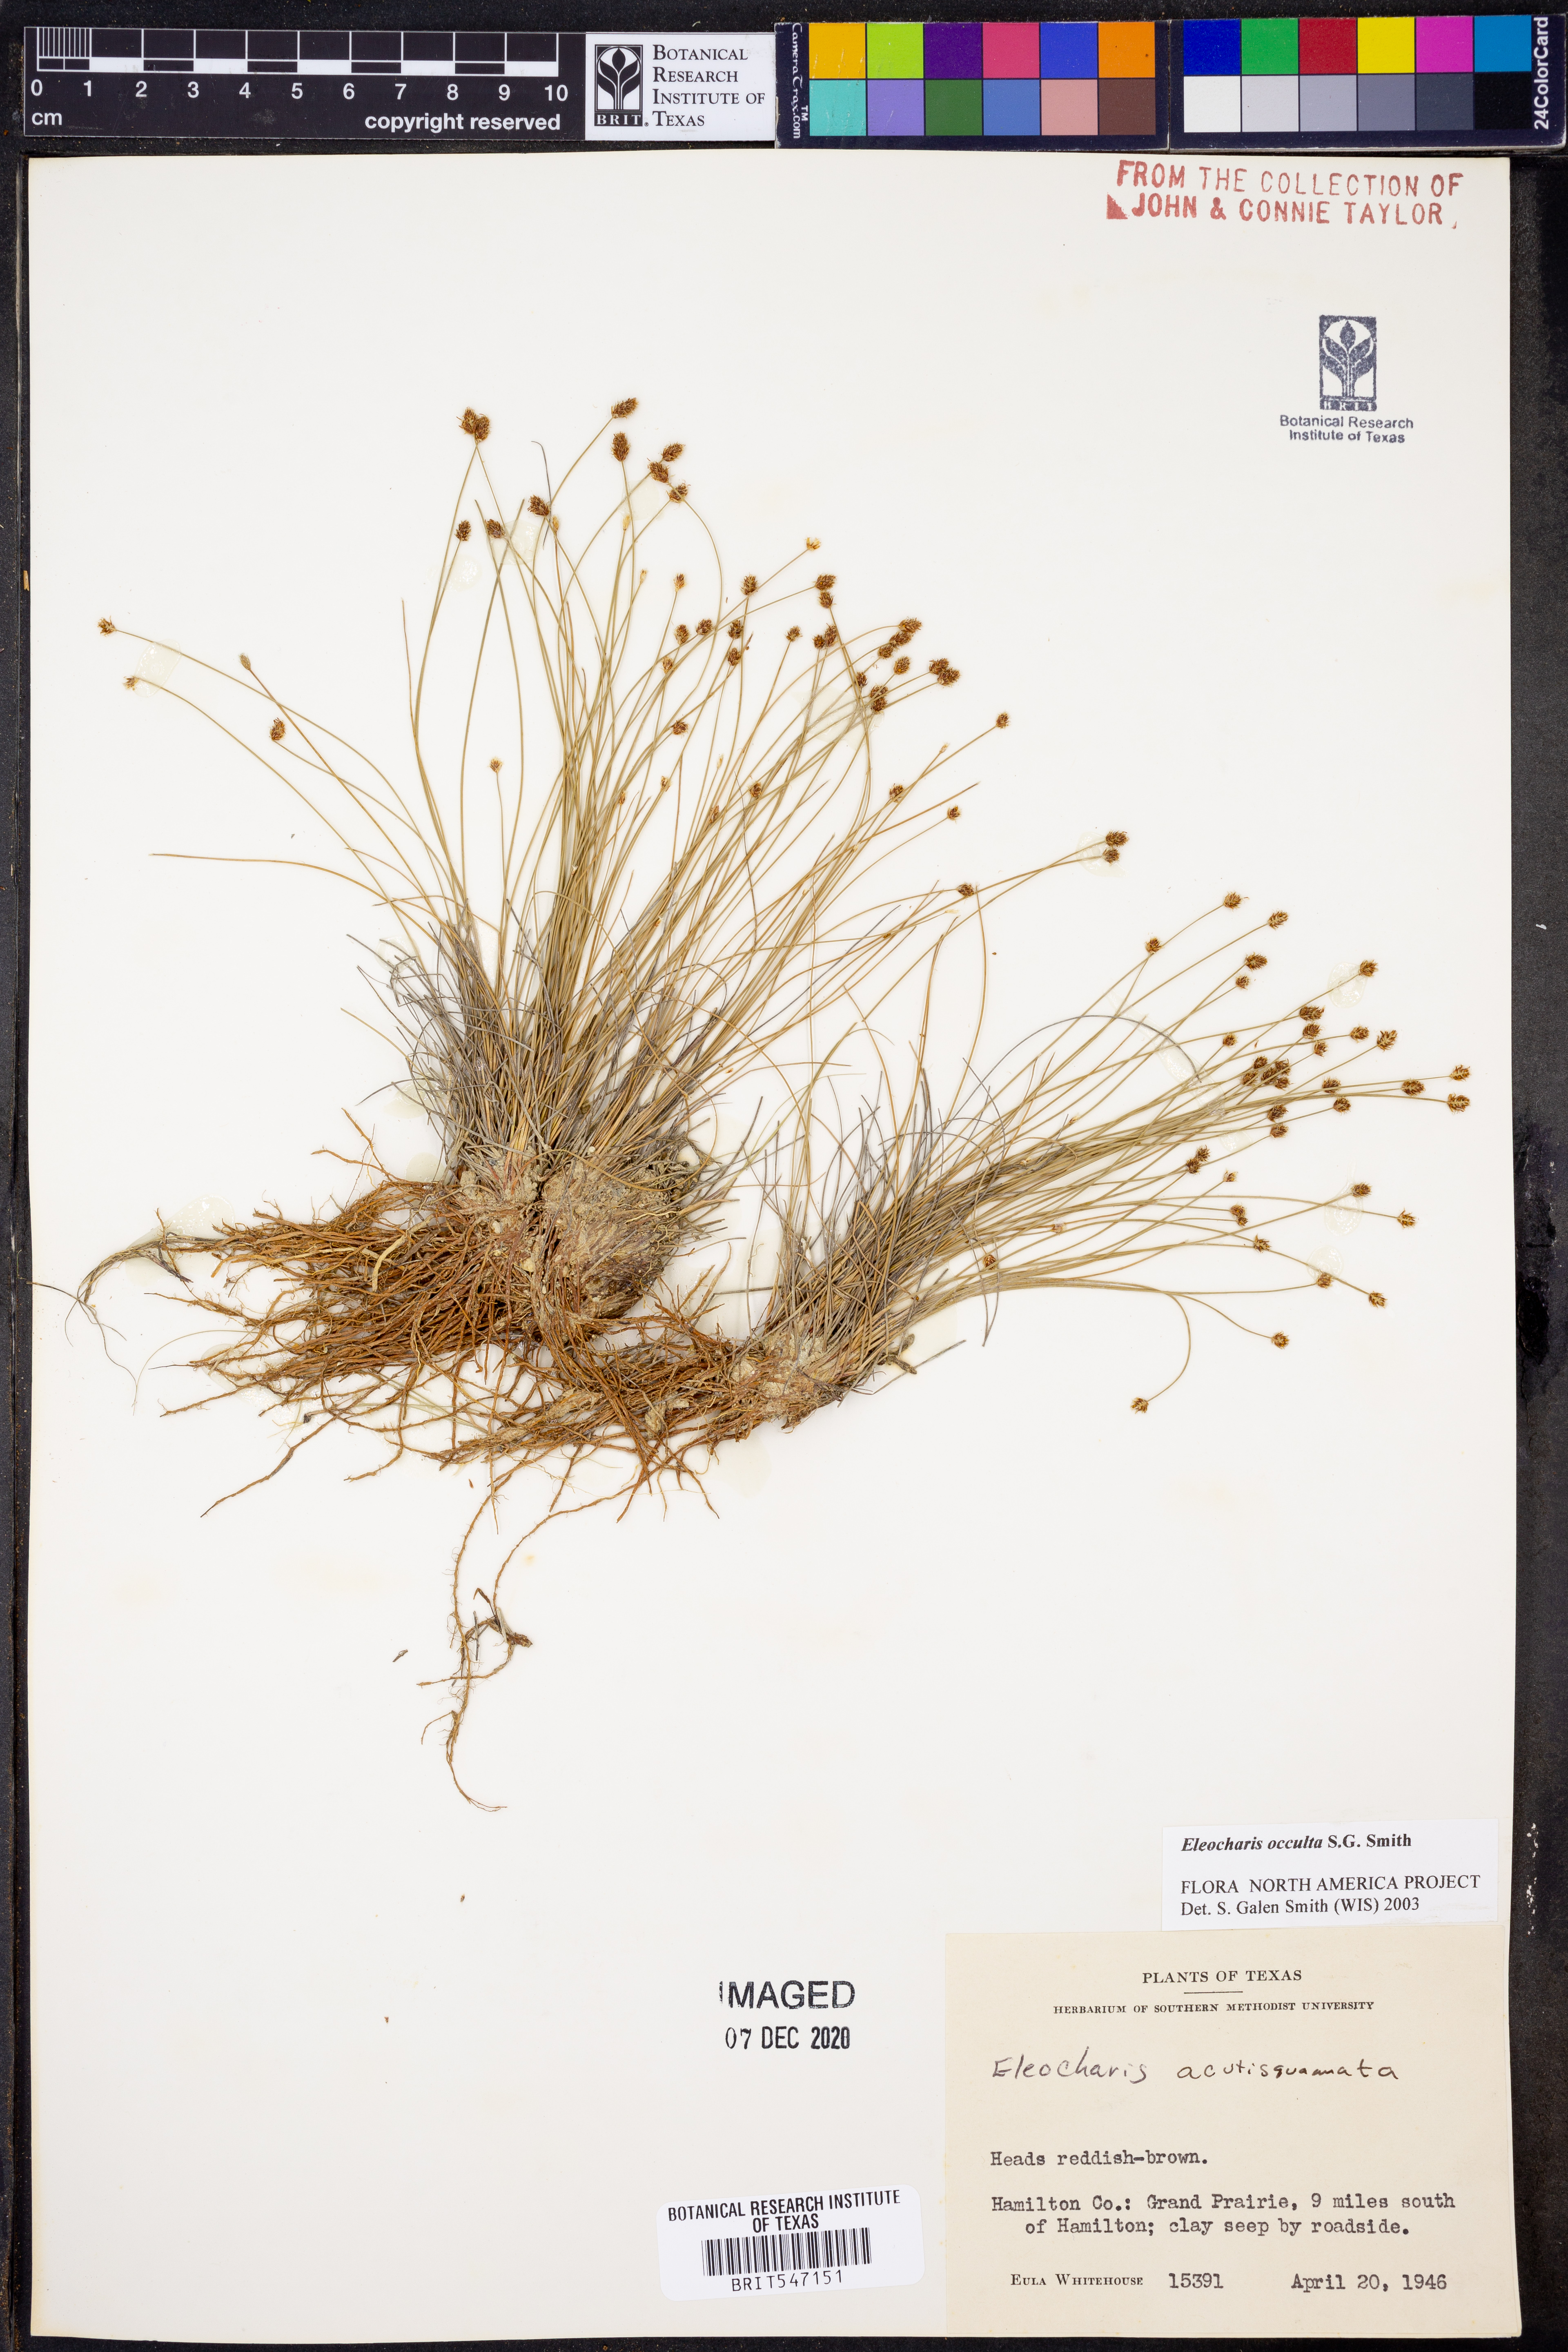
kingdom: Plantae
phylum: Tracheophyta
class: Liliopsida
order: Poales
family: Cyperaceae
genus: Eleocharis
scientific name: Eleocharis occulta
